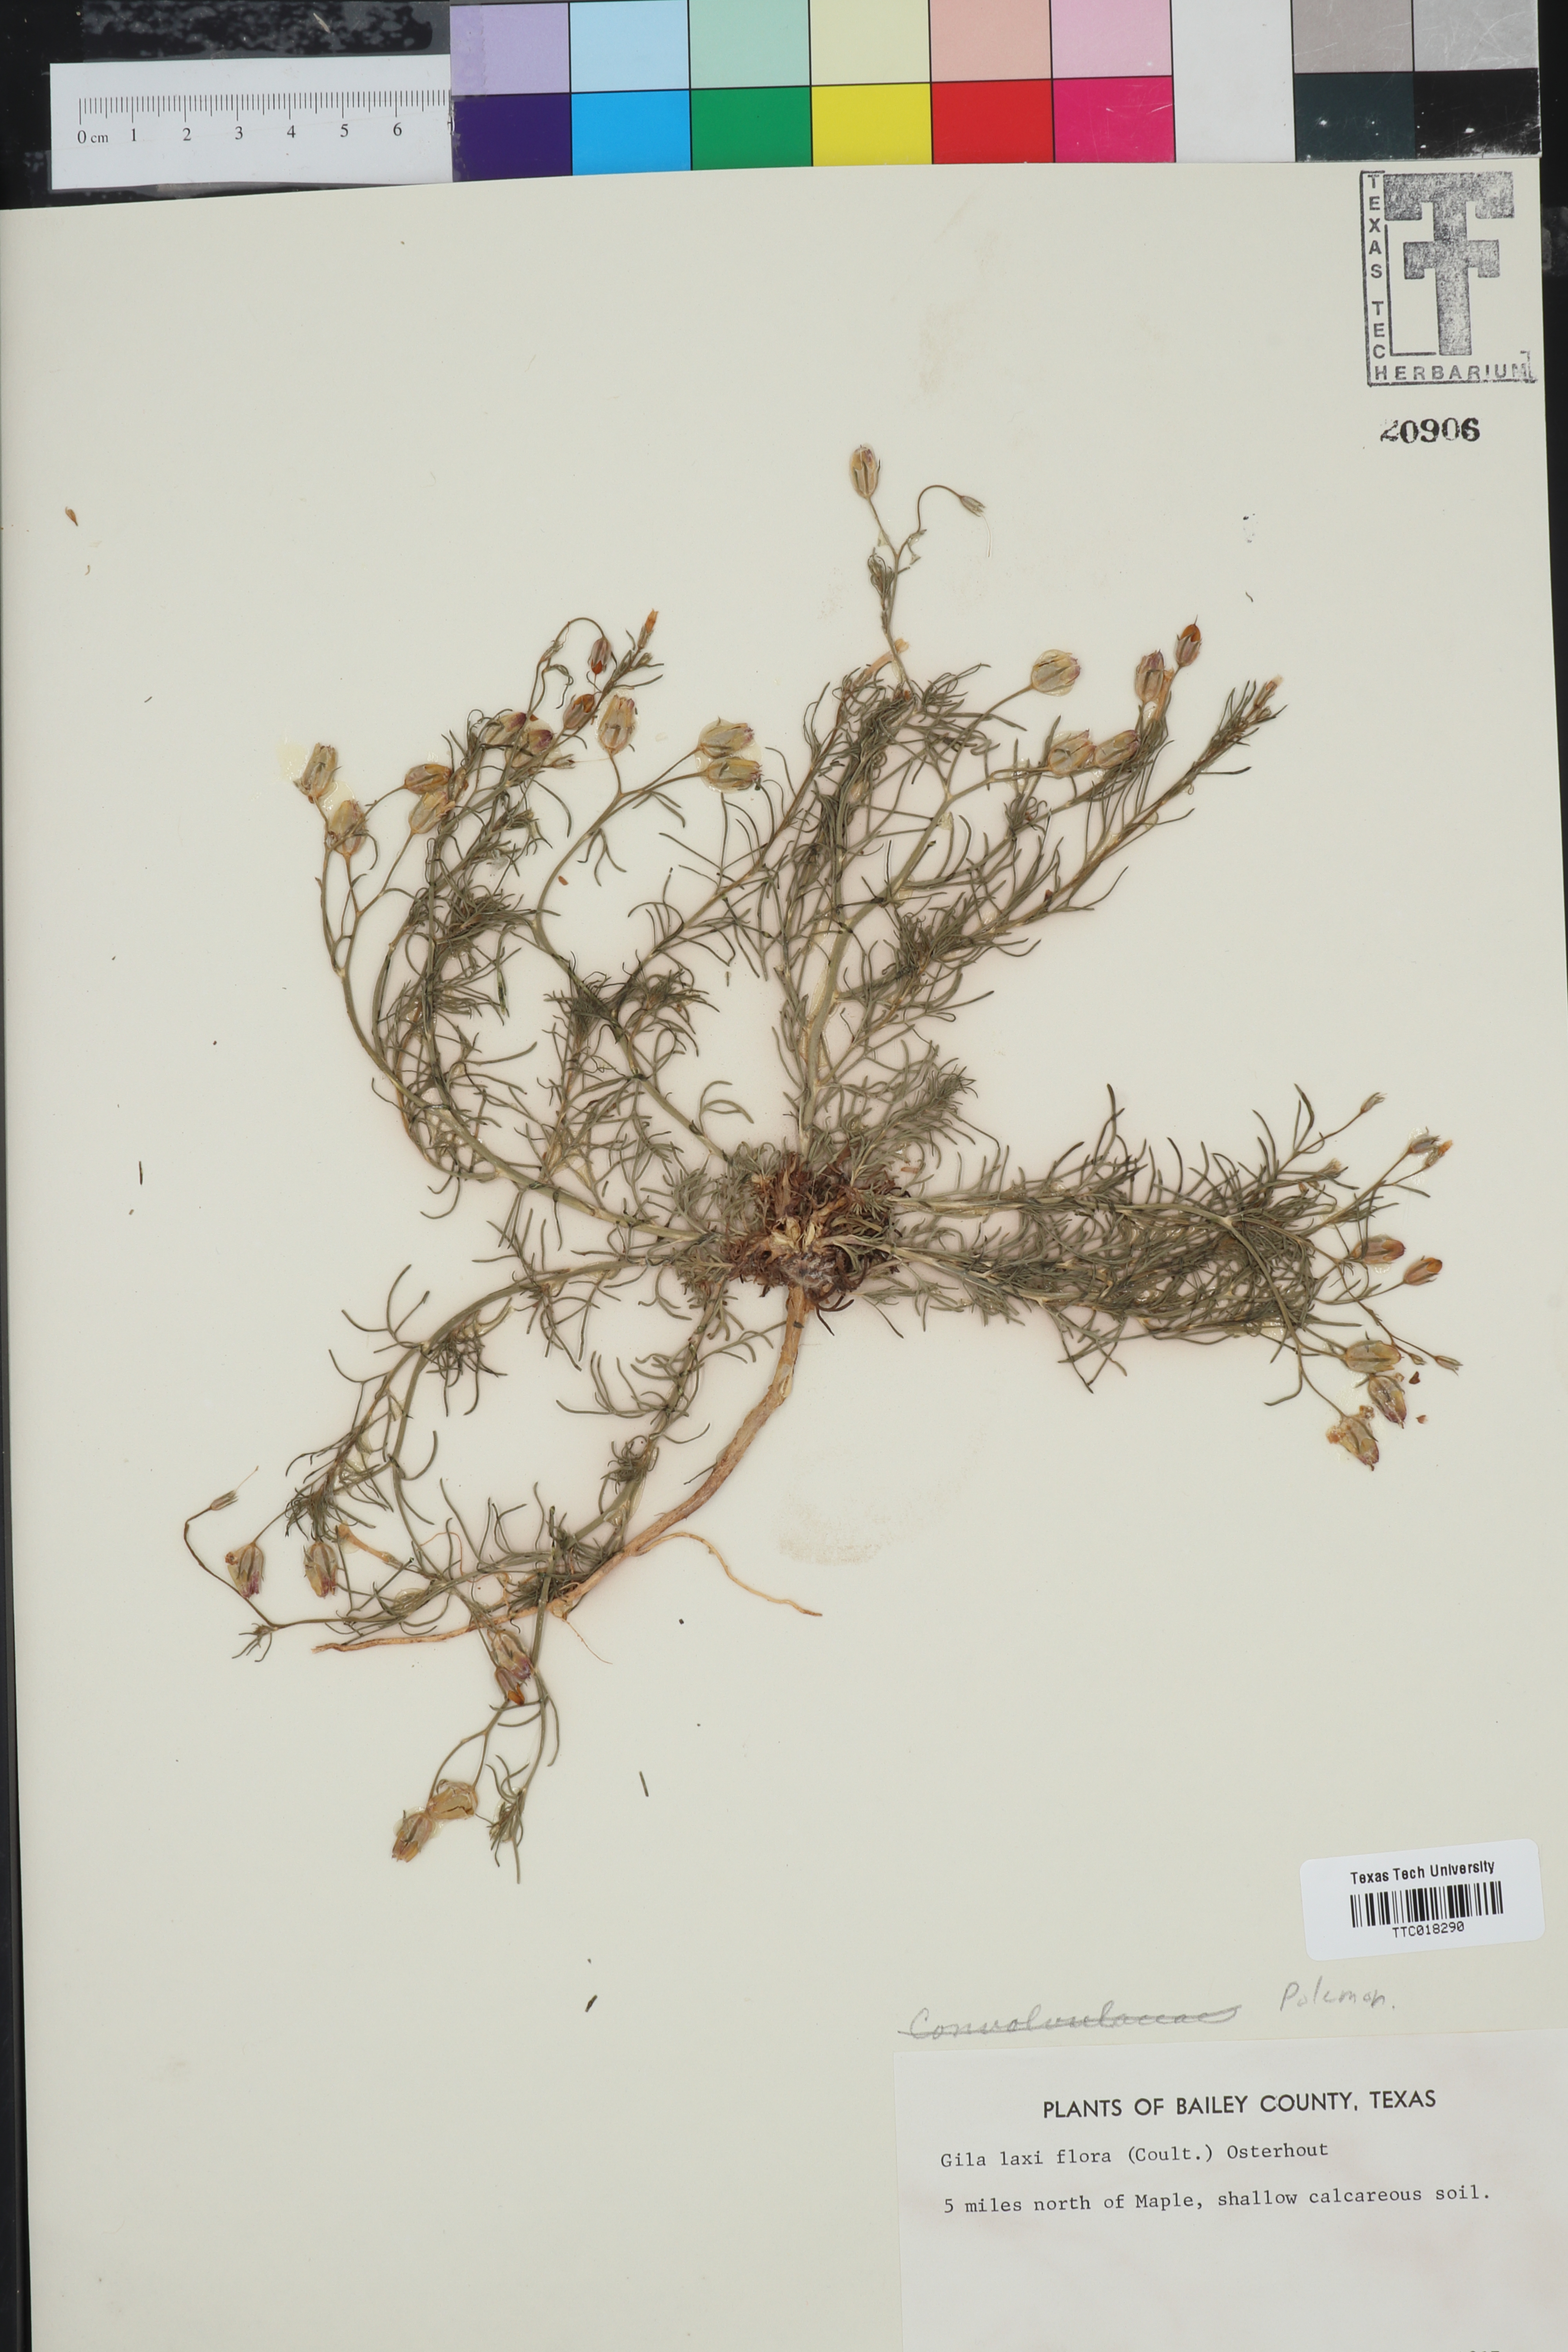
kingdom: Plantae
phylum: Tracheophyta
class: Magnoliopsida
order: Ericales
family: Polemoniaceae
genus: Ipomopsis
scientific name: Ipomopsis laxiflora
